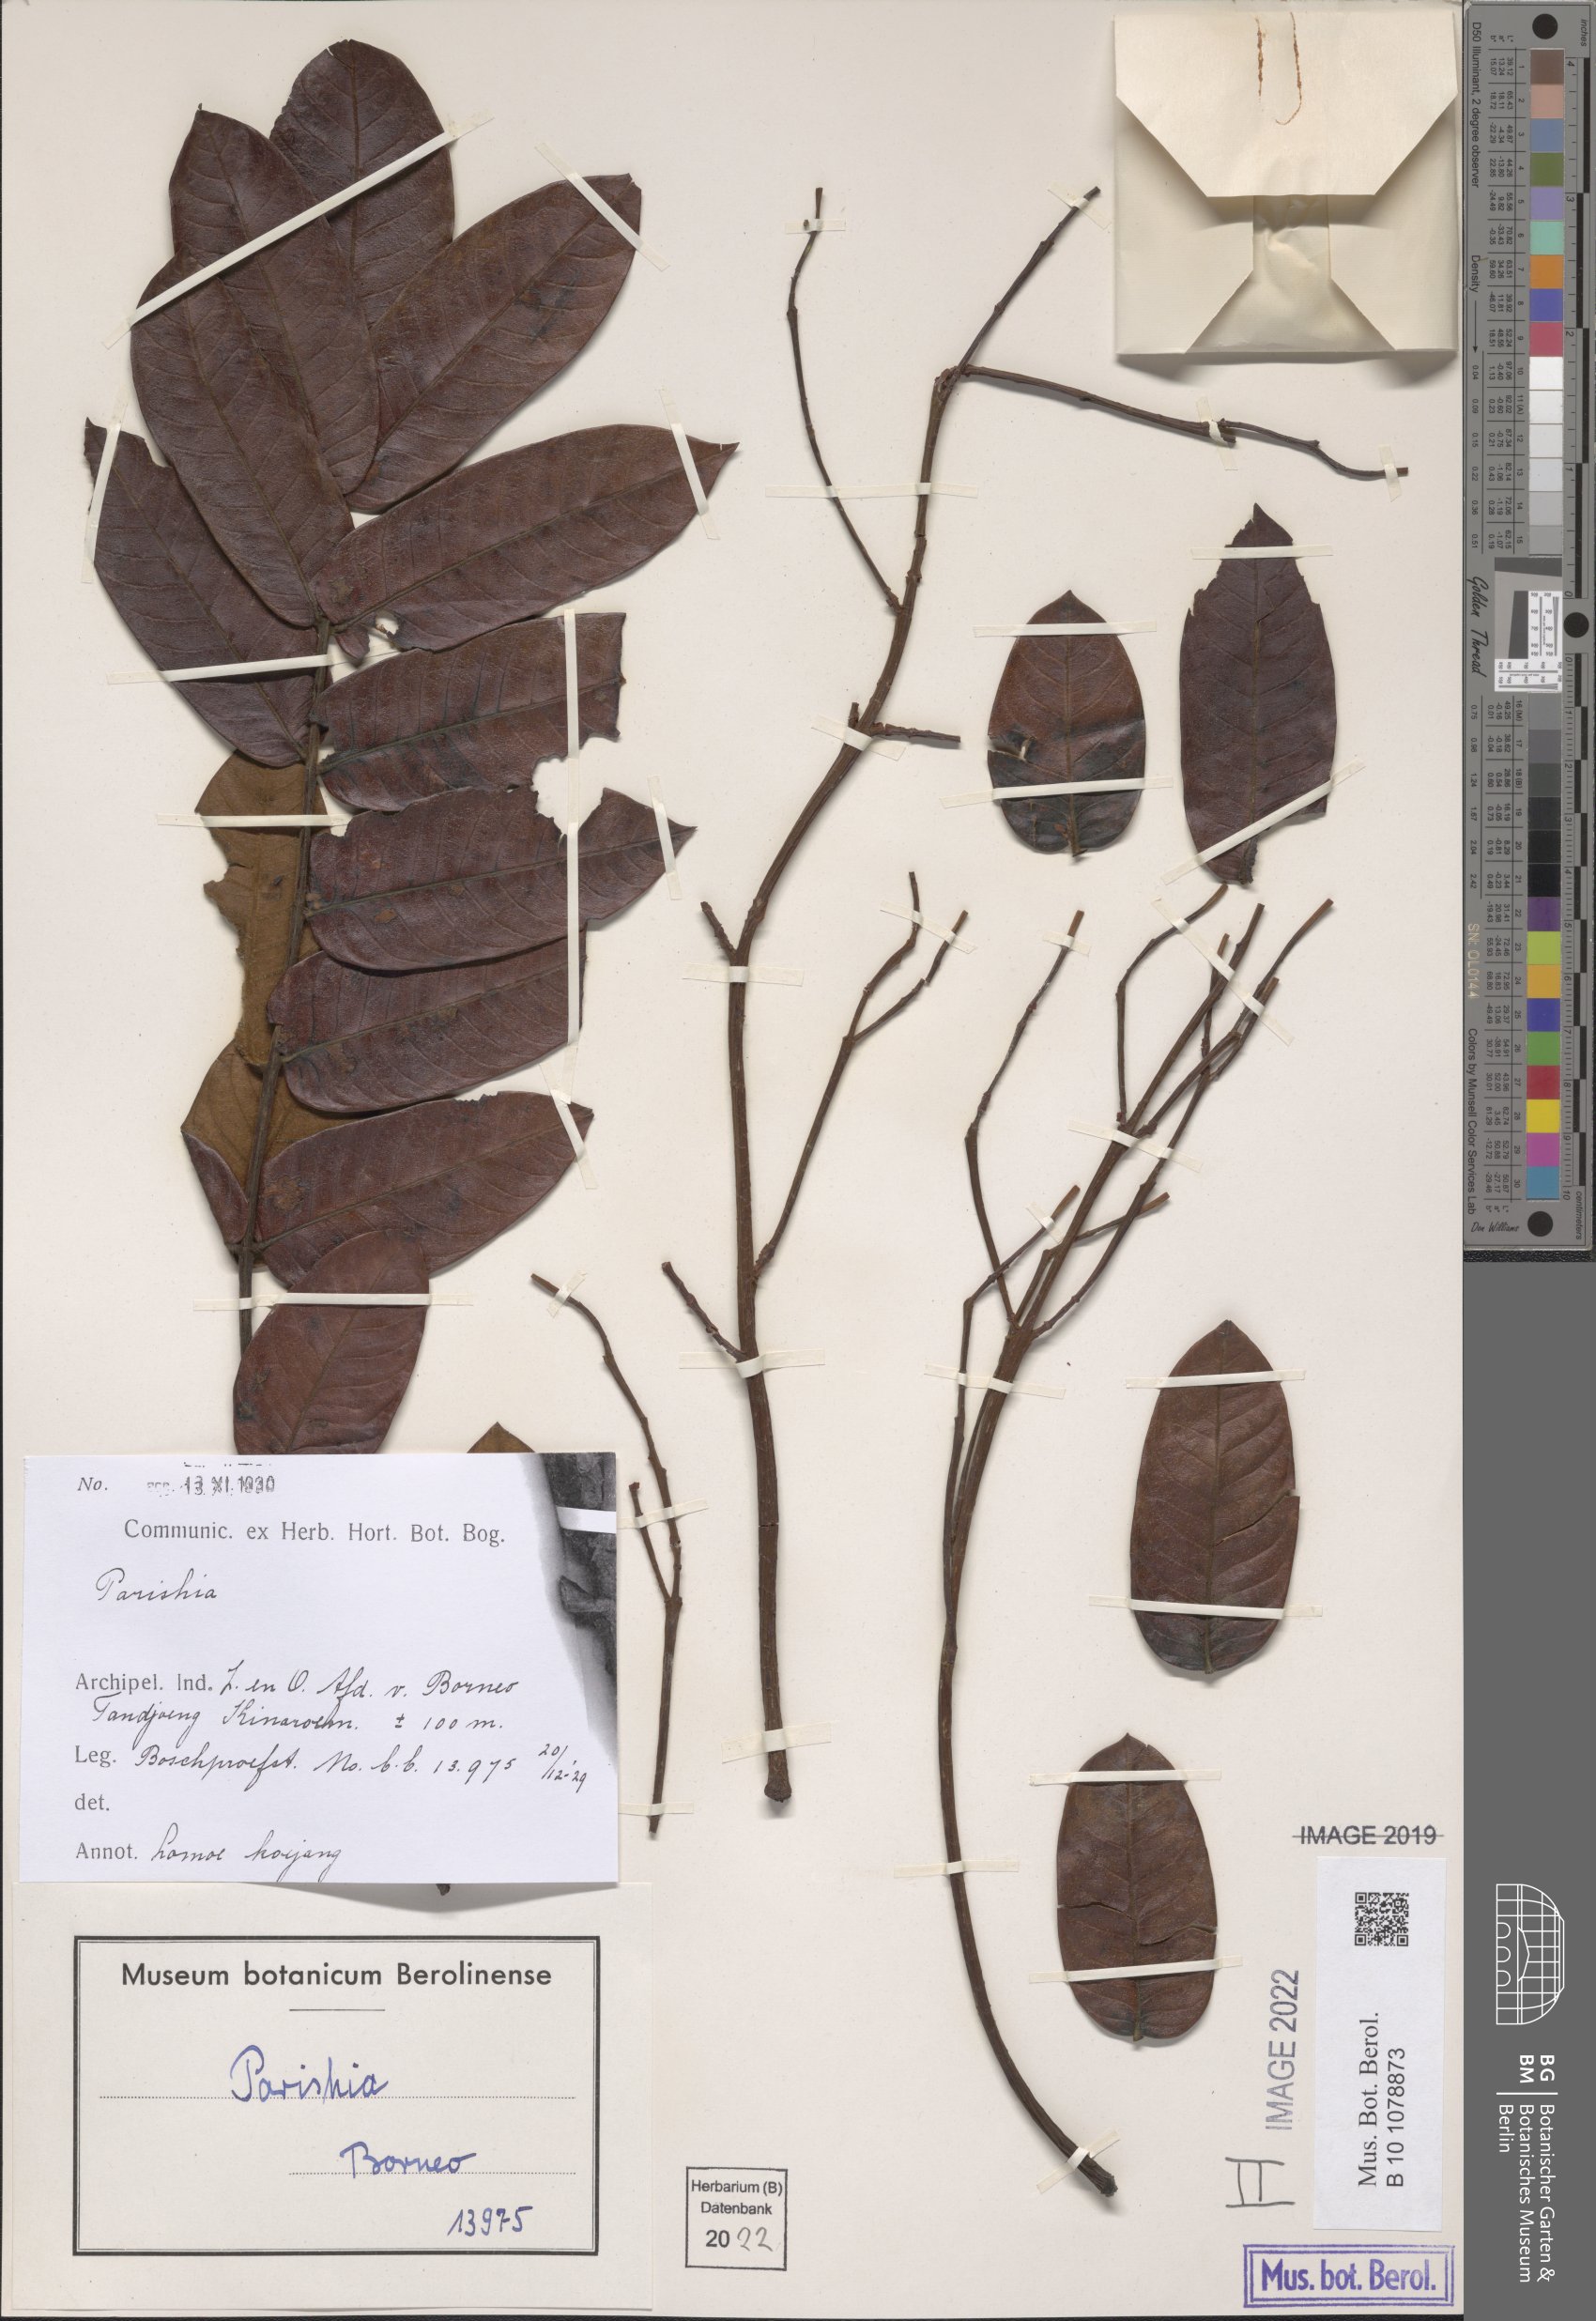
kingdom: Plantae
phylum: Tracheophyta
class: Magnoliopsida
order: Sapindales
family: Anacardiaceae
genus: Parishia
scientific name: Parishia
